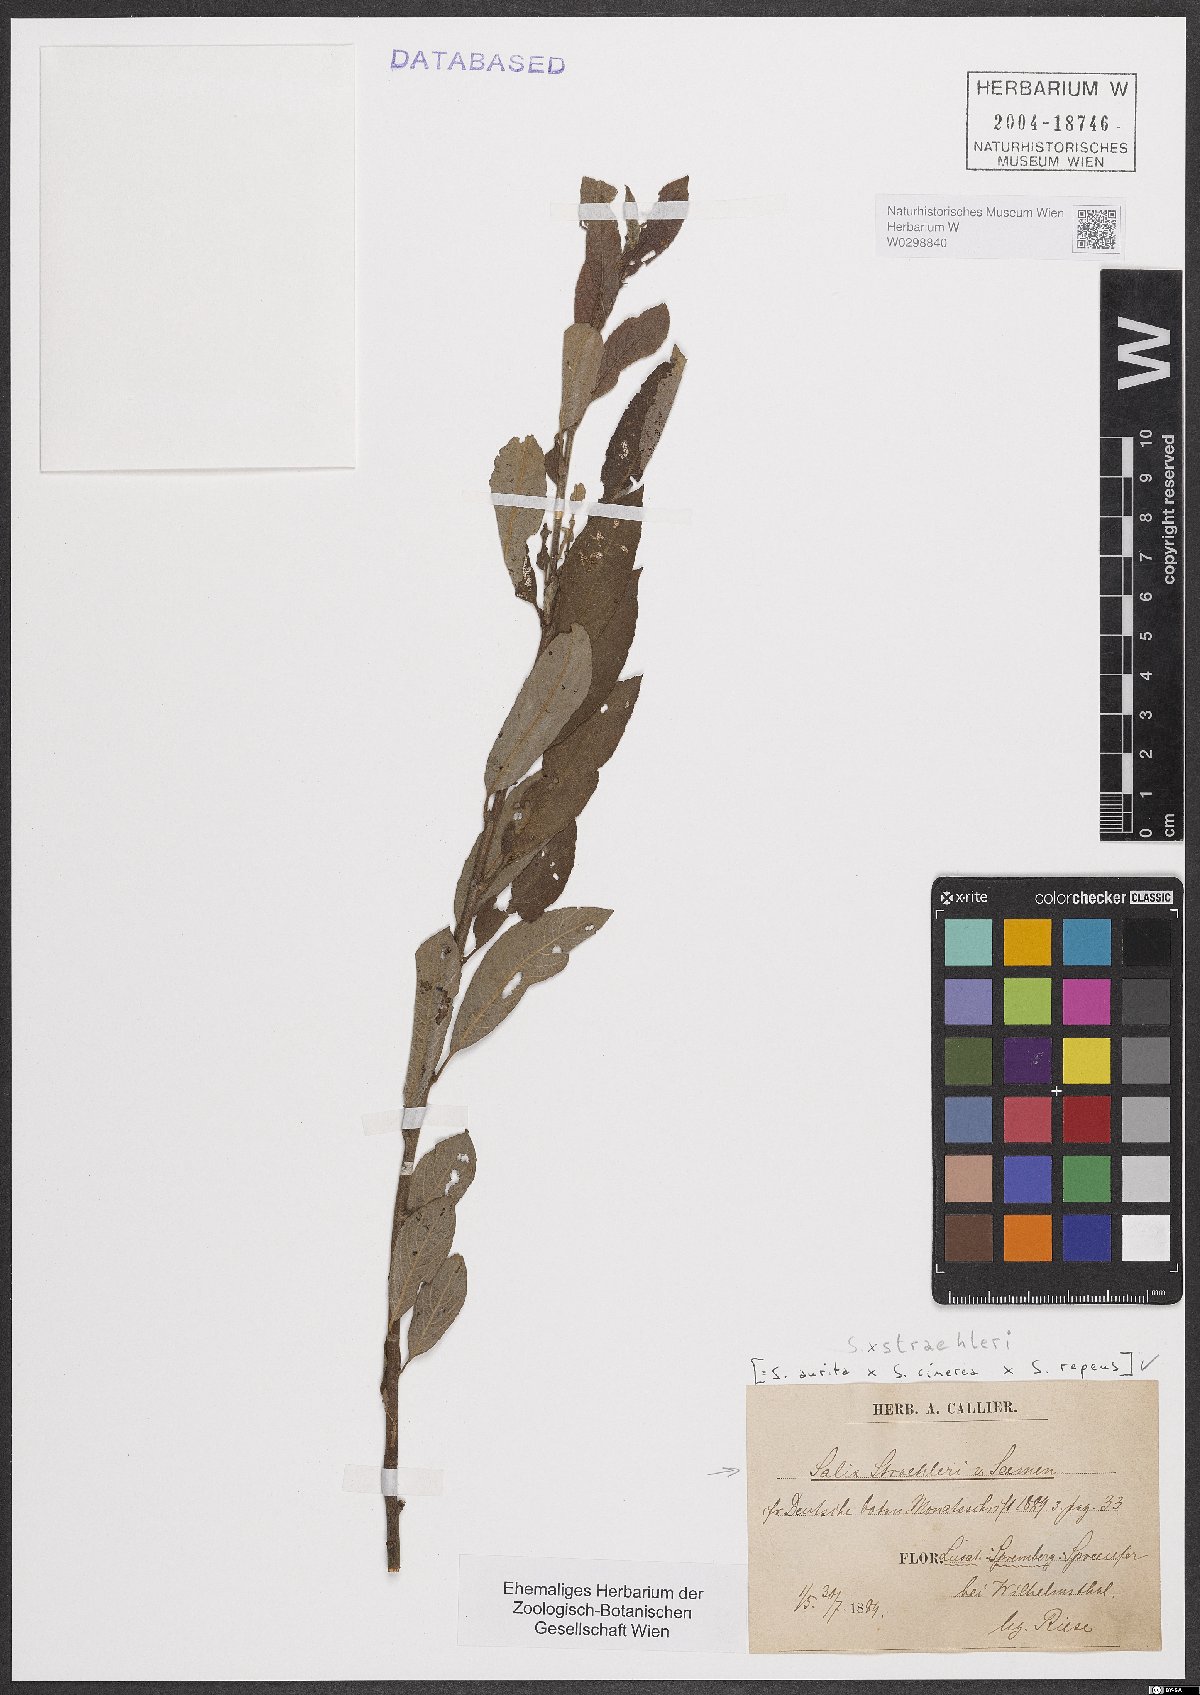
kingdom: Plantae
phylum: Tracheophyta
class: Magnoliopsida
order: Malpighiales
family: Salicaceae
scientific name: Salicaceae
